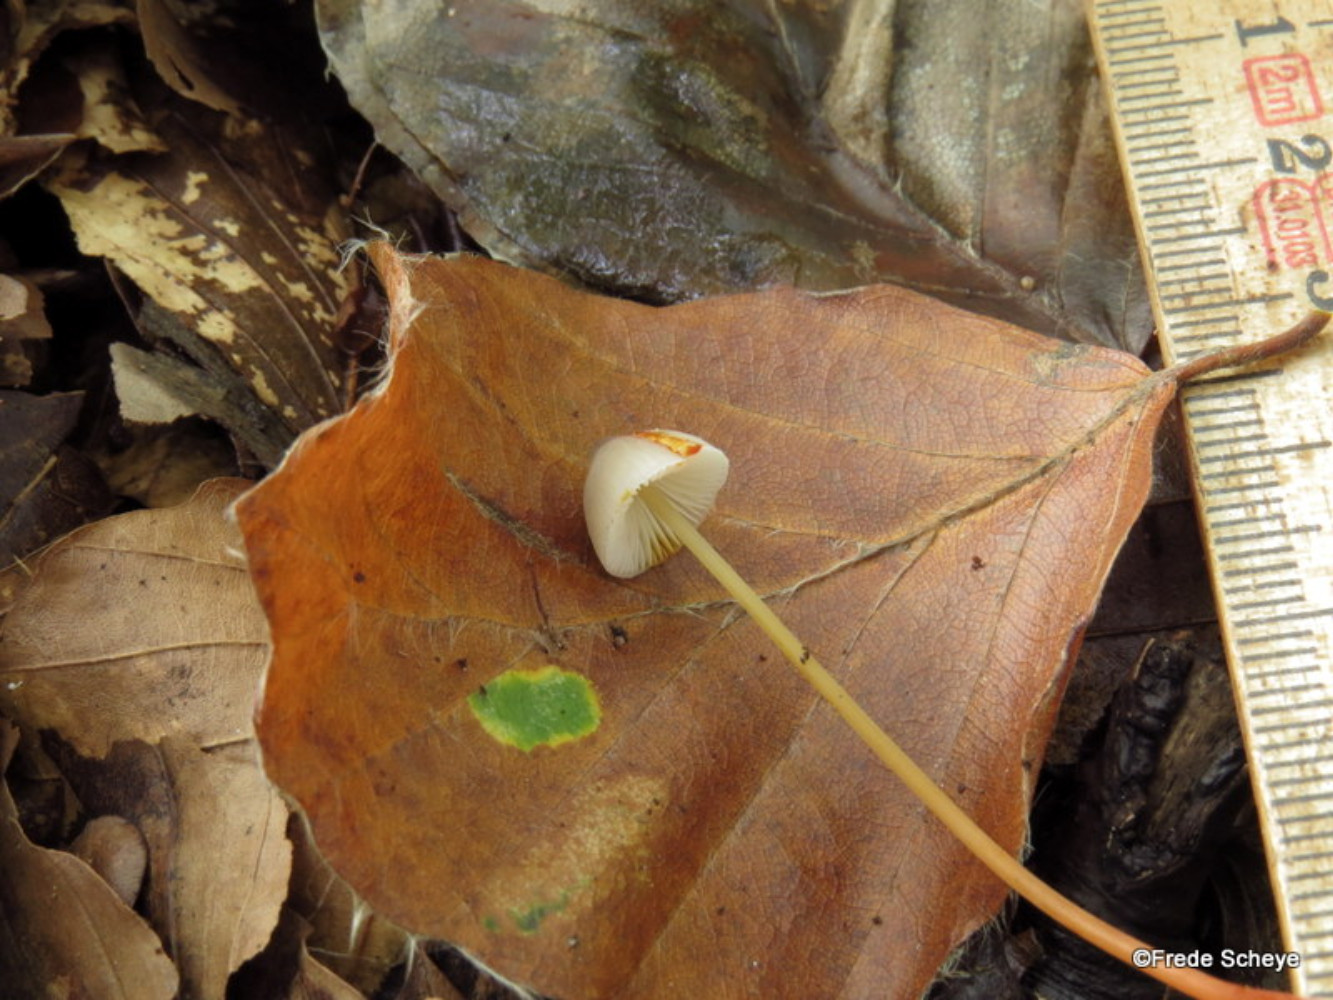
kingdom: Fungi
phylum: Basidiomycota
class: Agaricomycetes
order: Agaricales
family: Mycenaceae
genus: Mycena
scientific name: Mycena crocata
